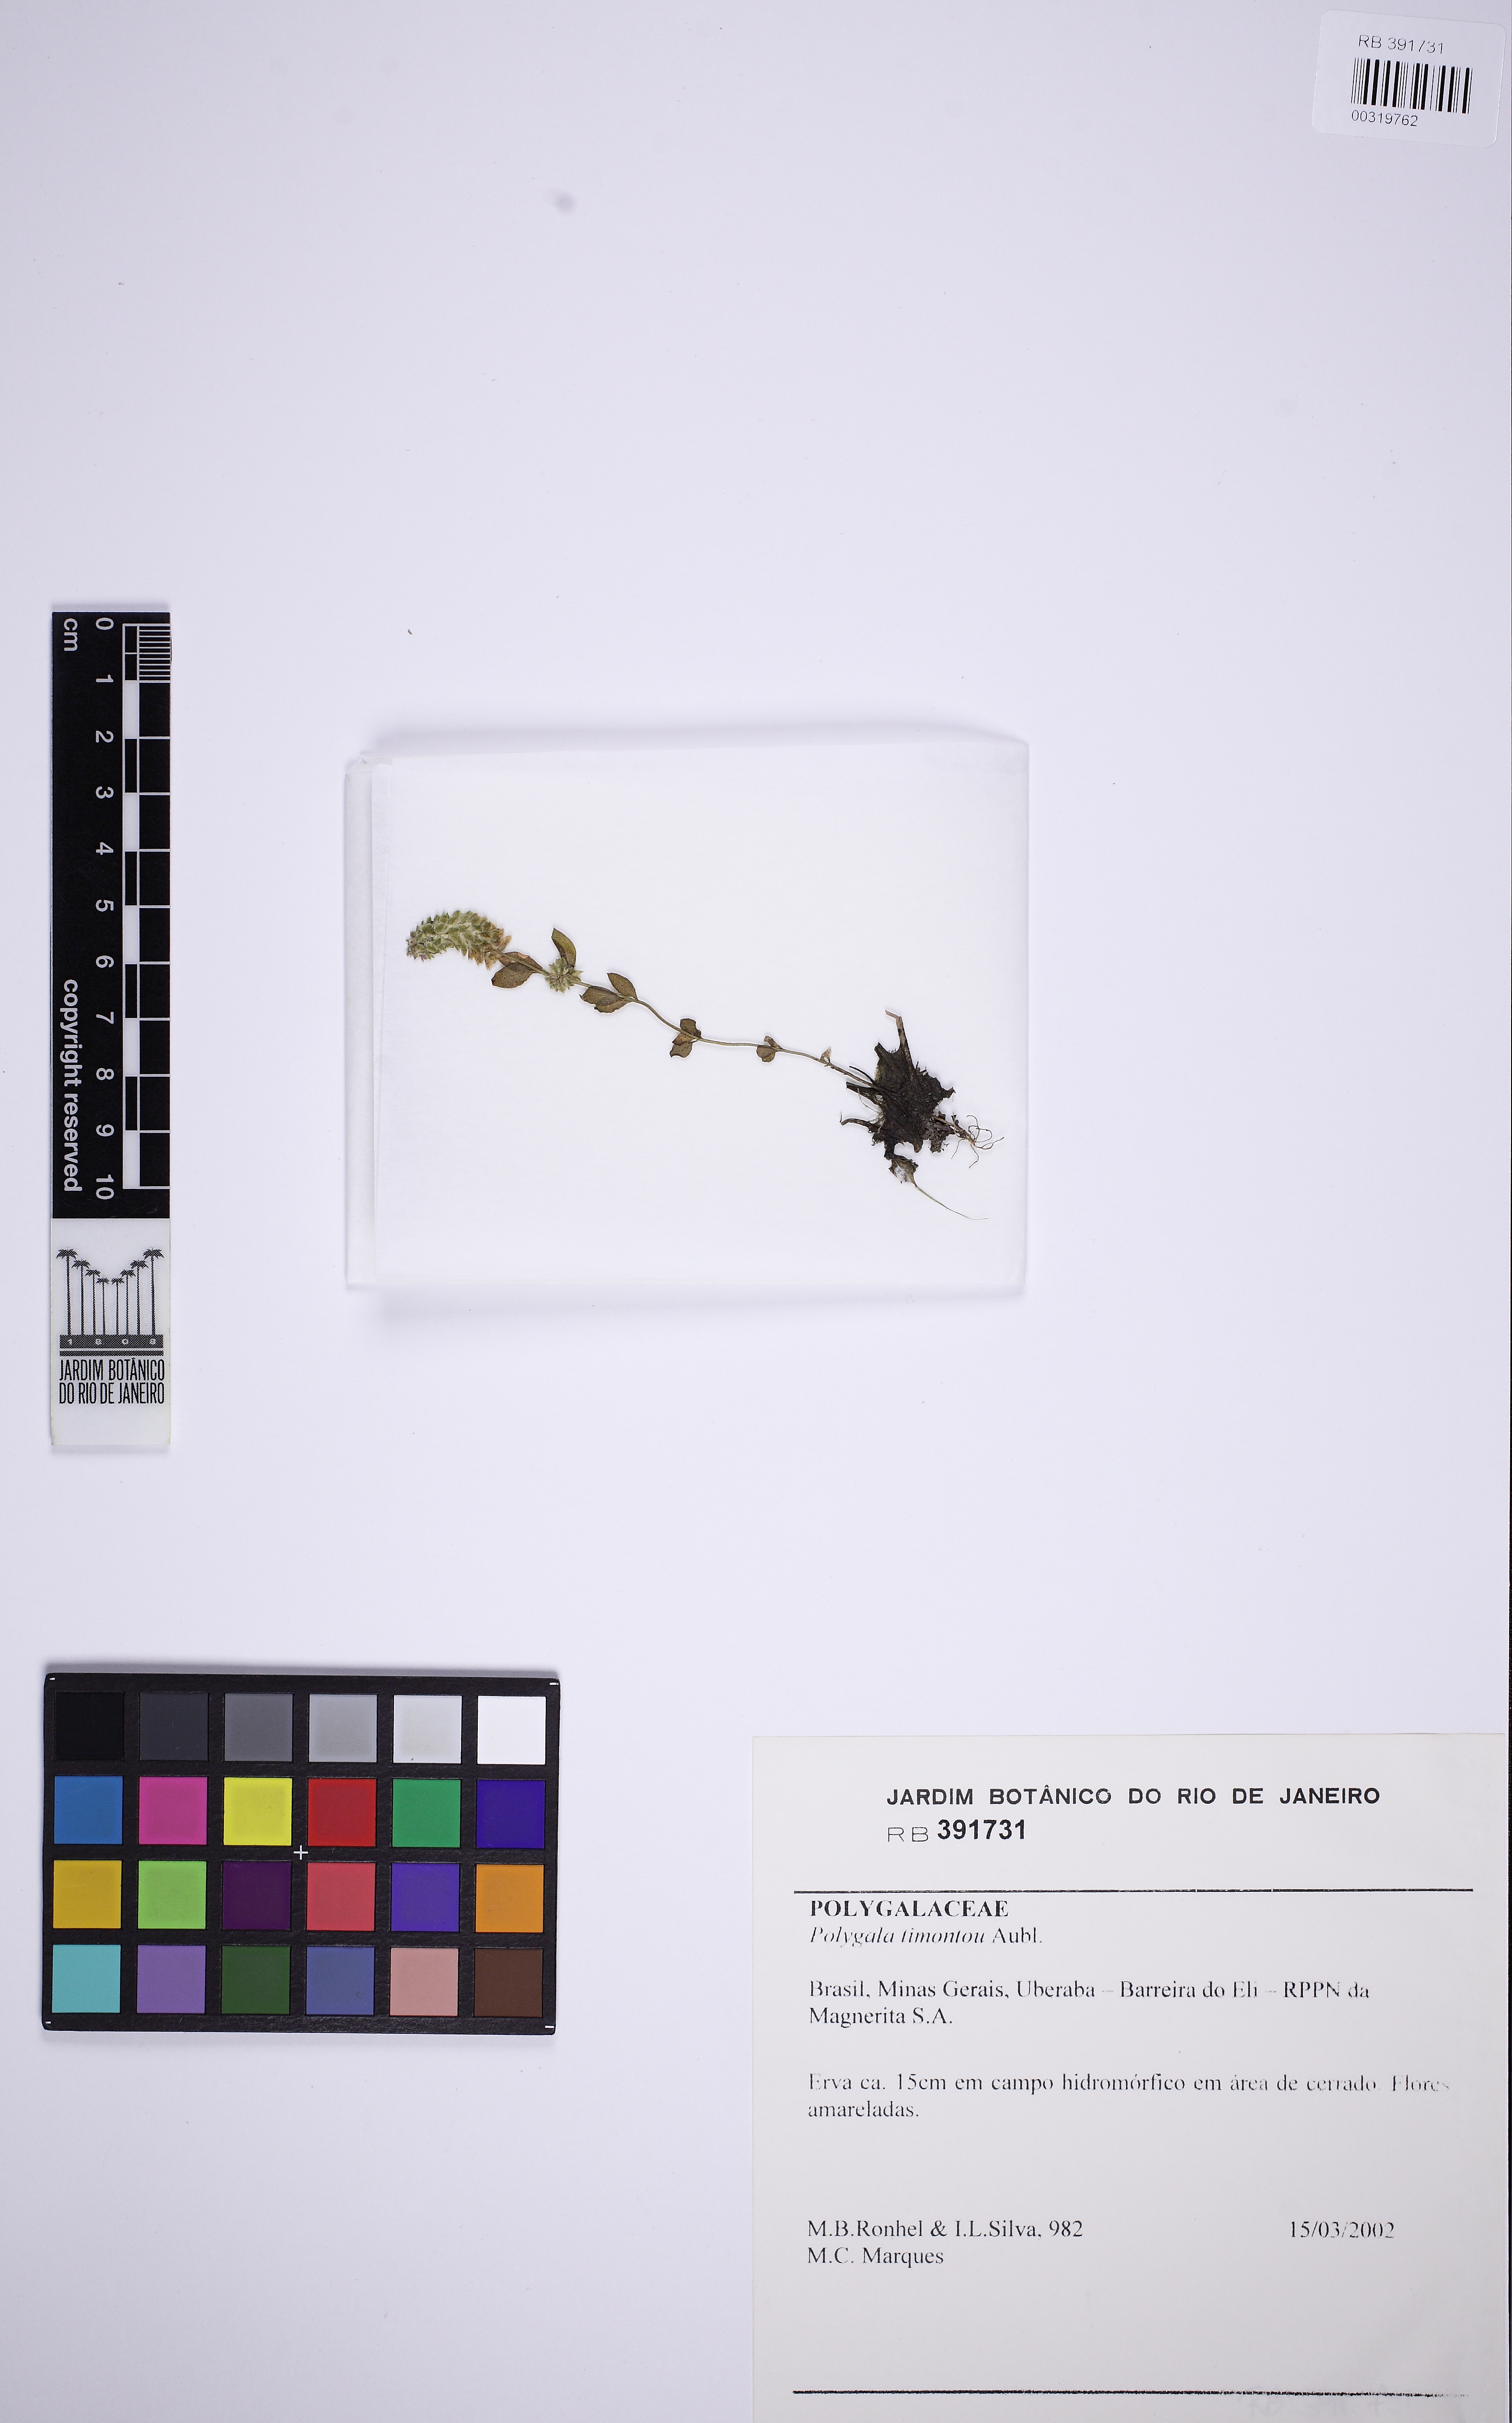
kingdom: Plantae
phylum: Tracheophyta
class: Magnoliopsida
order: Fabales
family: Polygalaceae
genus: Polygala
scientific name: Polygala timoutou
